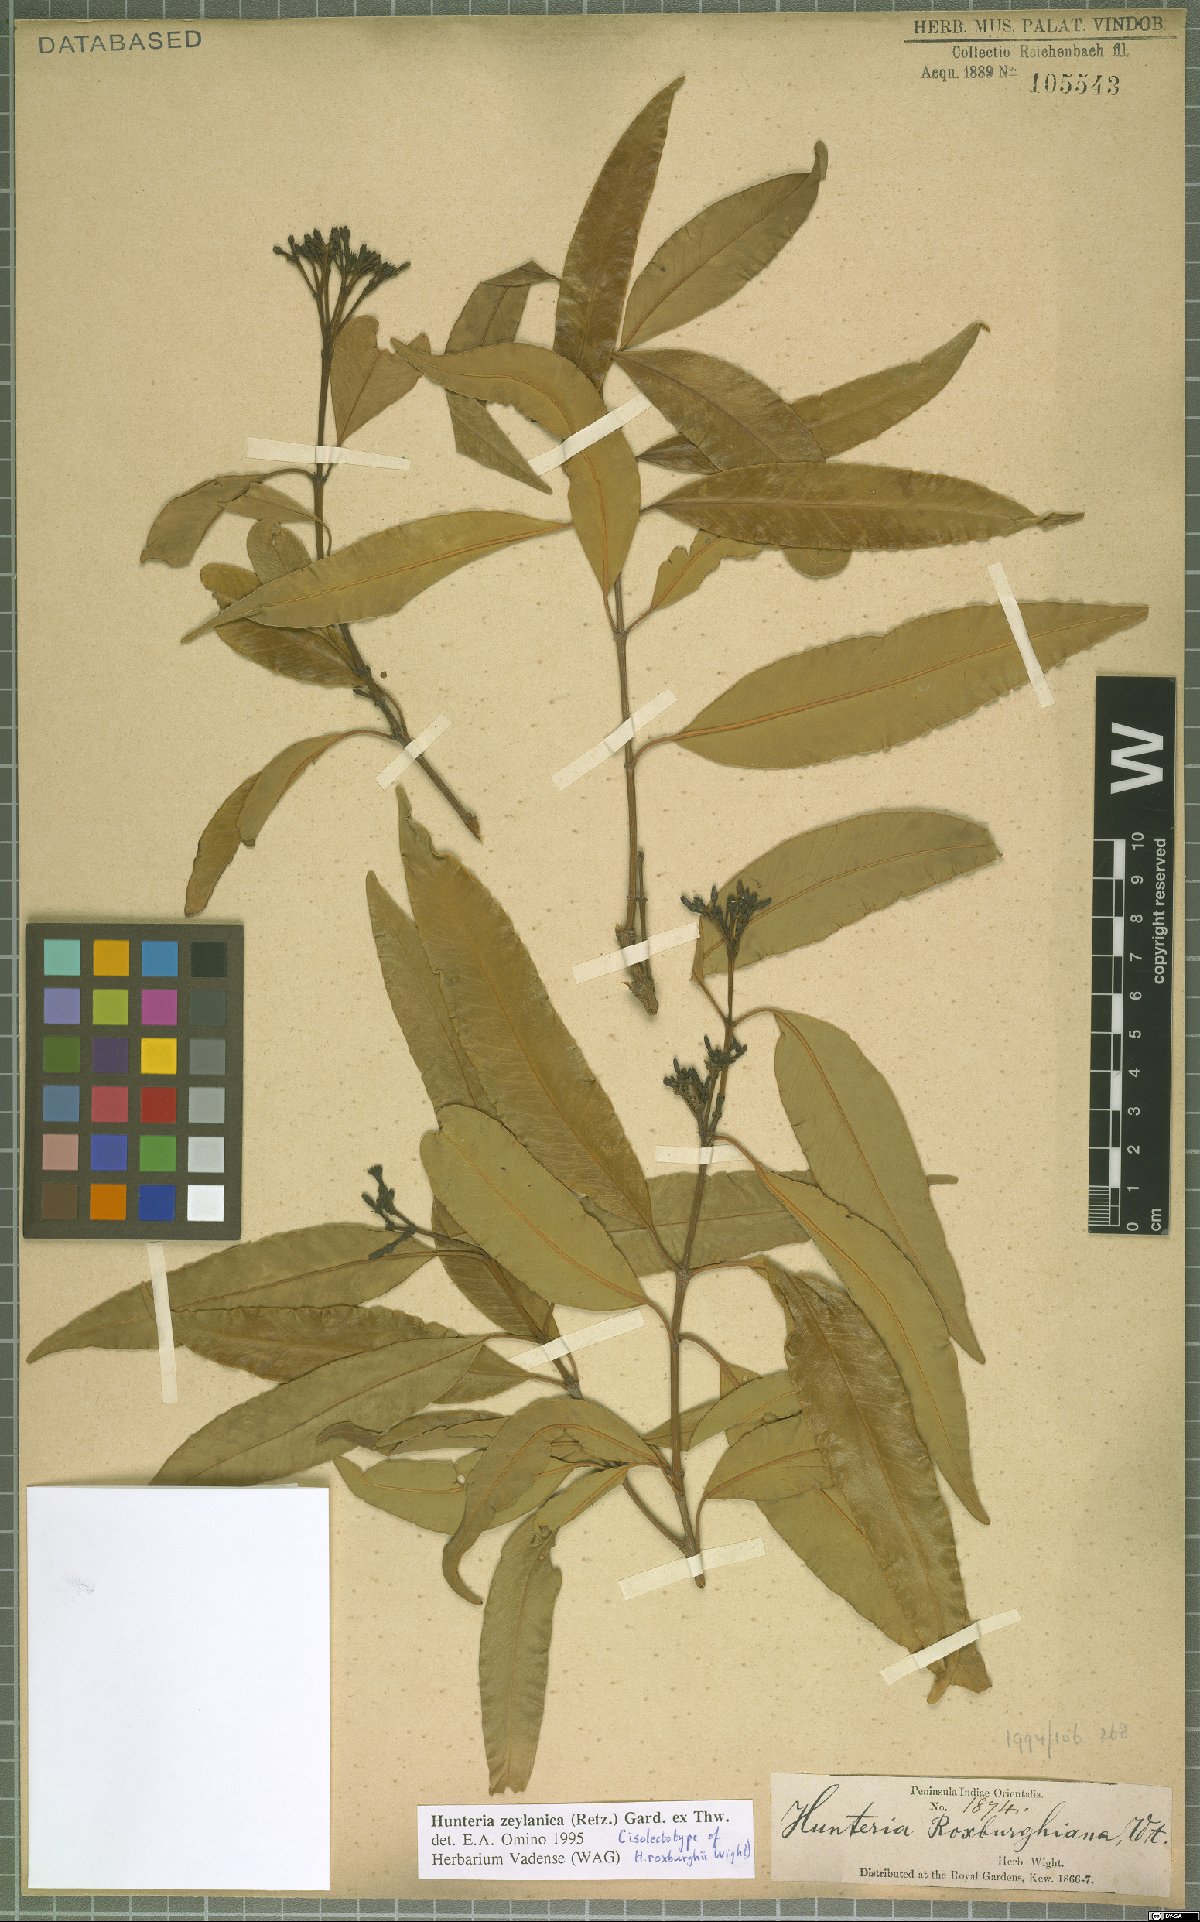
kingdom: Plantae
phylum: Tracheophyta
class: Magnoliopsida
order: Gentianales
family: Apocynaceae
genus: Hunteria
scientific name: Hunteria zeylanica
